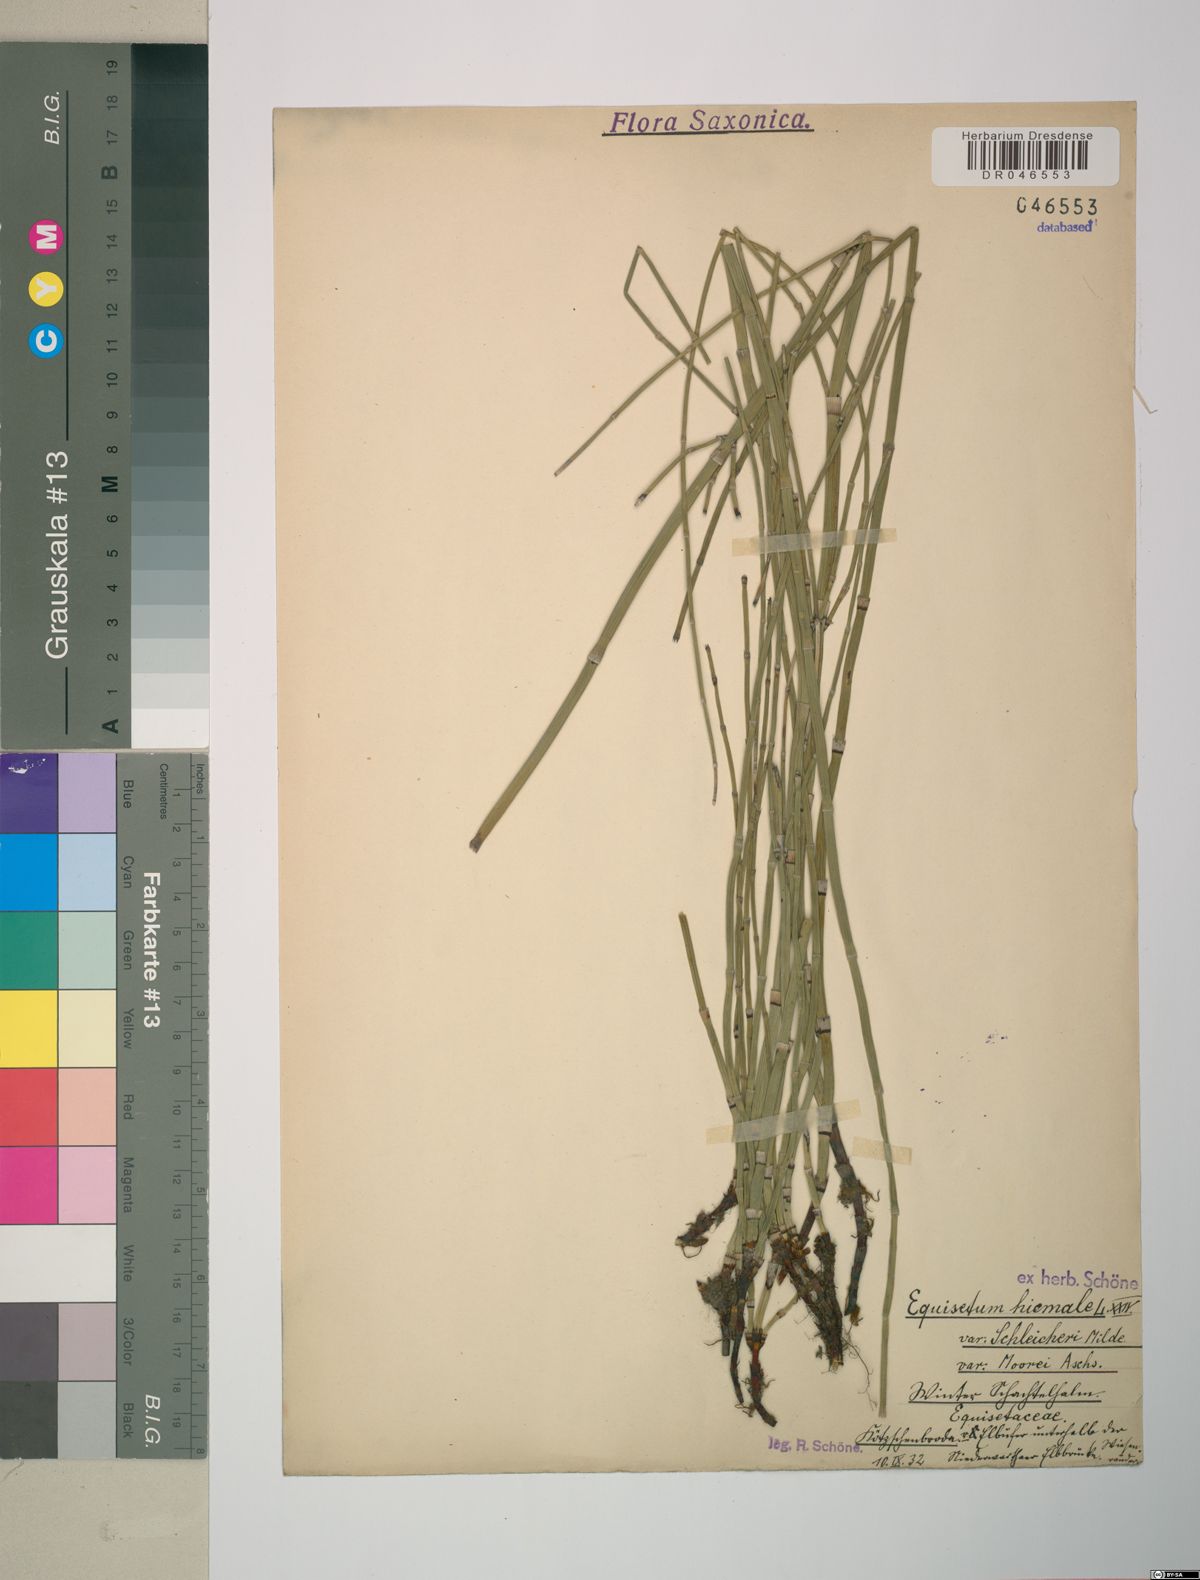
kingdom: Plantae
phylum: Tracheophyta
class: Polypodiopsida
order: Equisetales
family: Equisetaceae
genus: Equisetum
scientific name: Equisetum moorei
